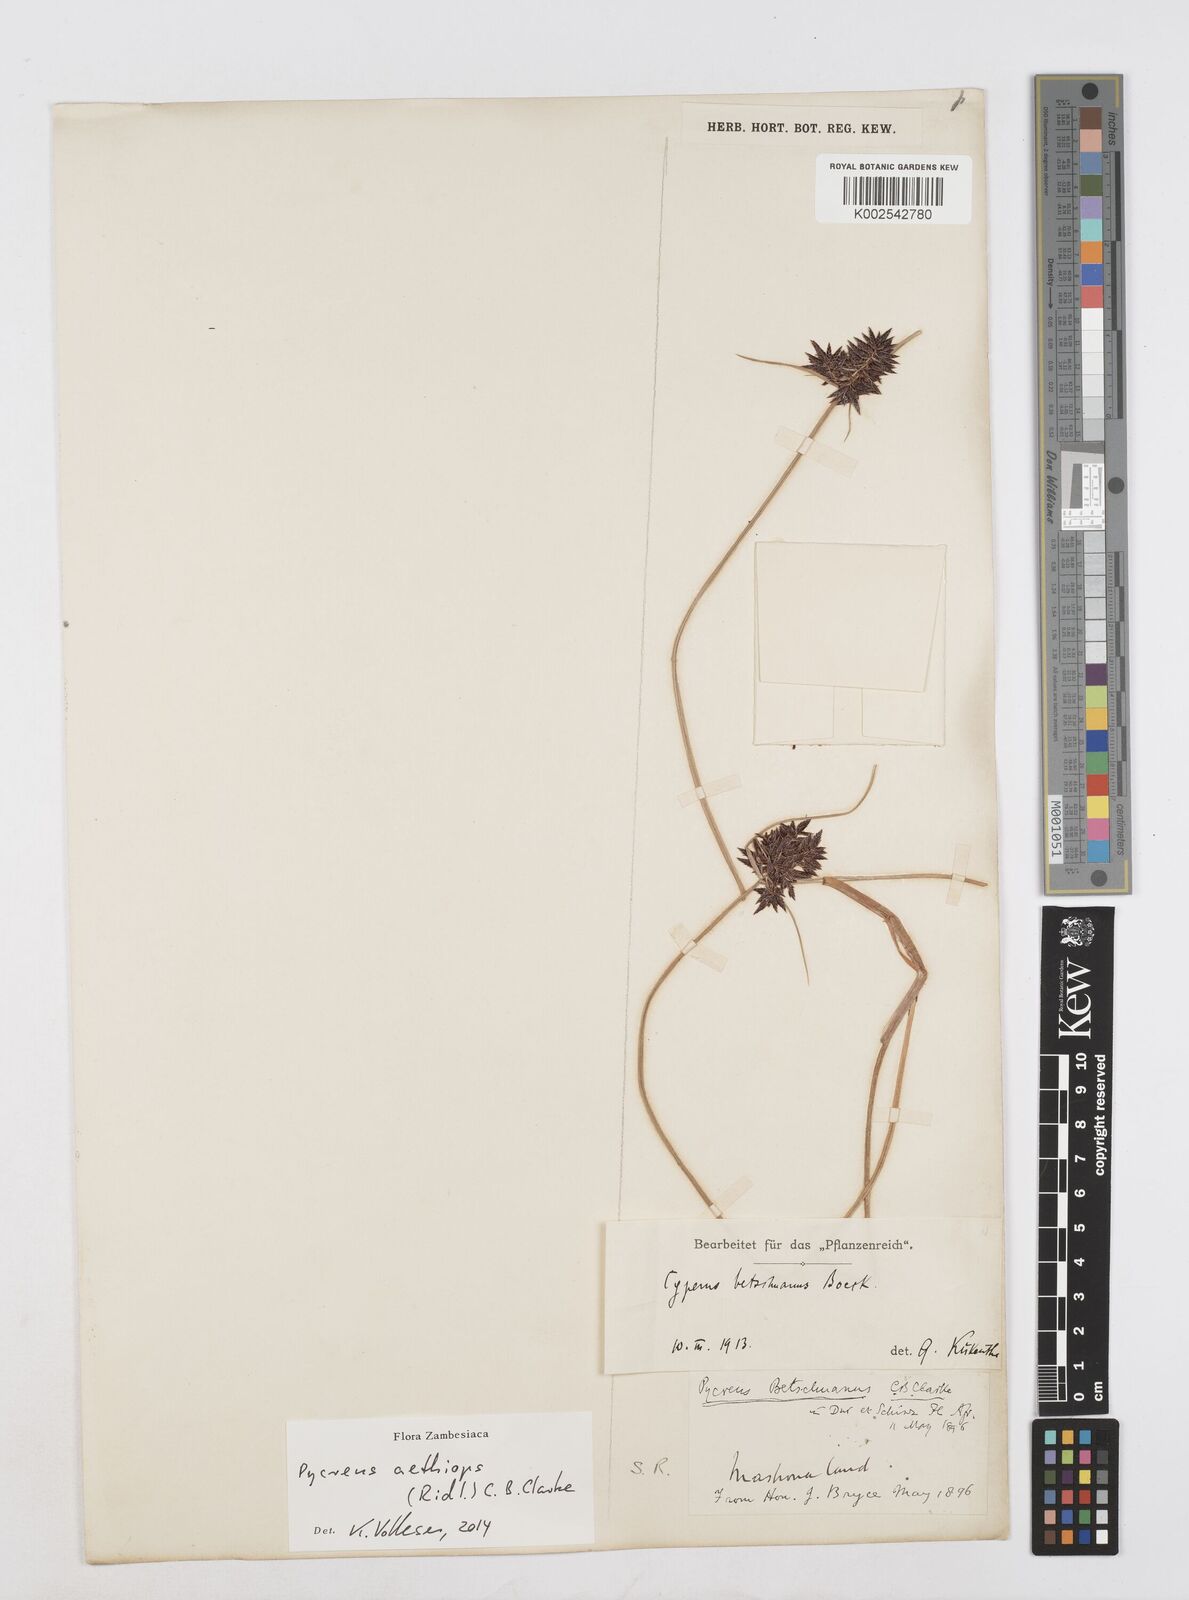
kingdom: Plantae
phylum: Tracheophyta
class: Liliopsida
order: Poales
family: Cyperaceae
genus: Cyperus
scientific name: Cyperus aethiops
